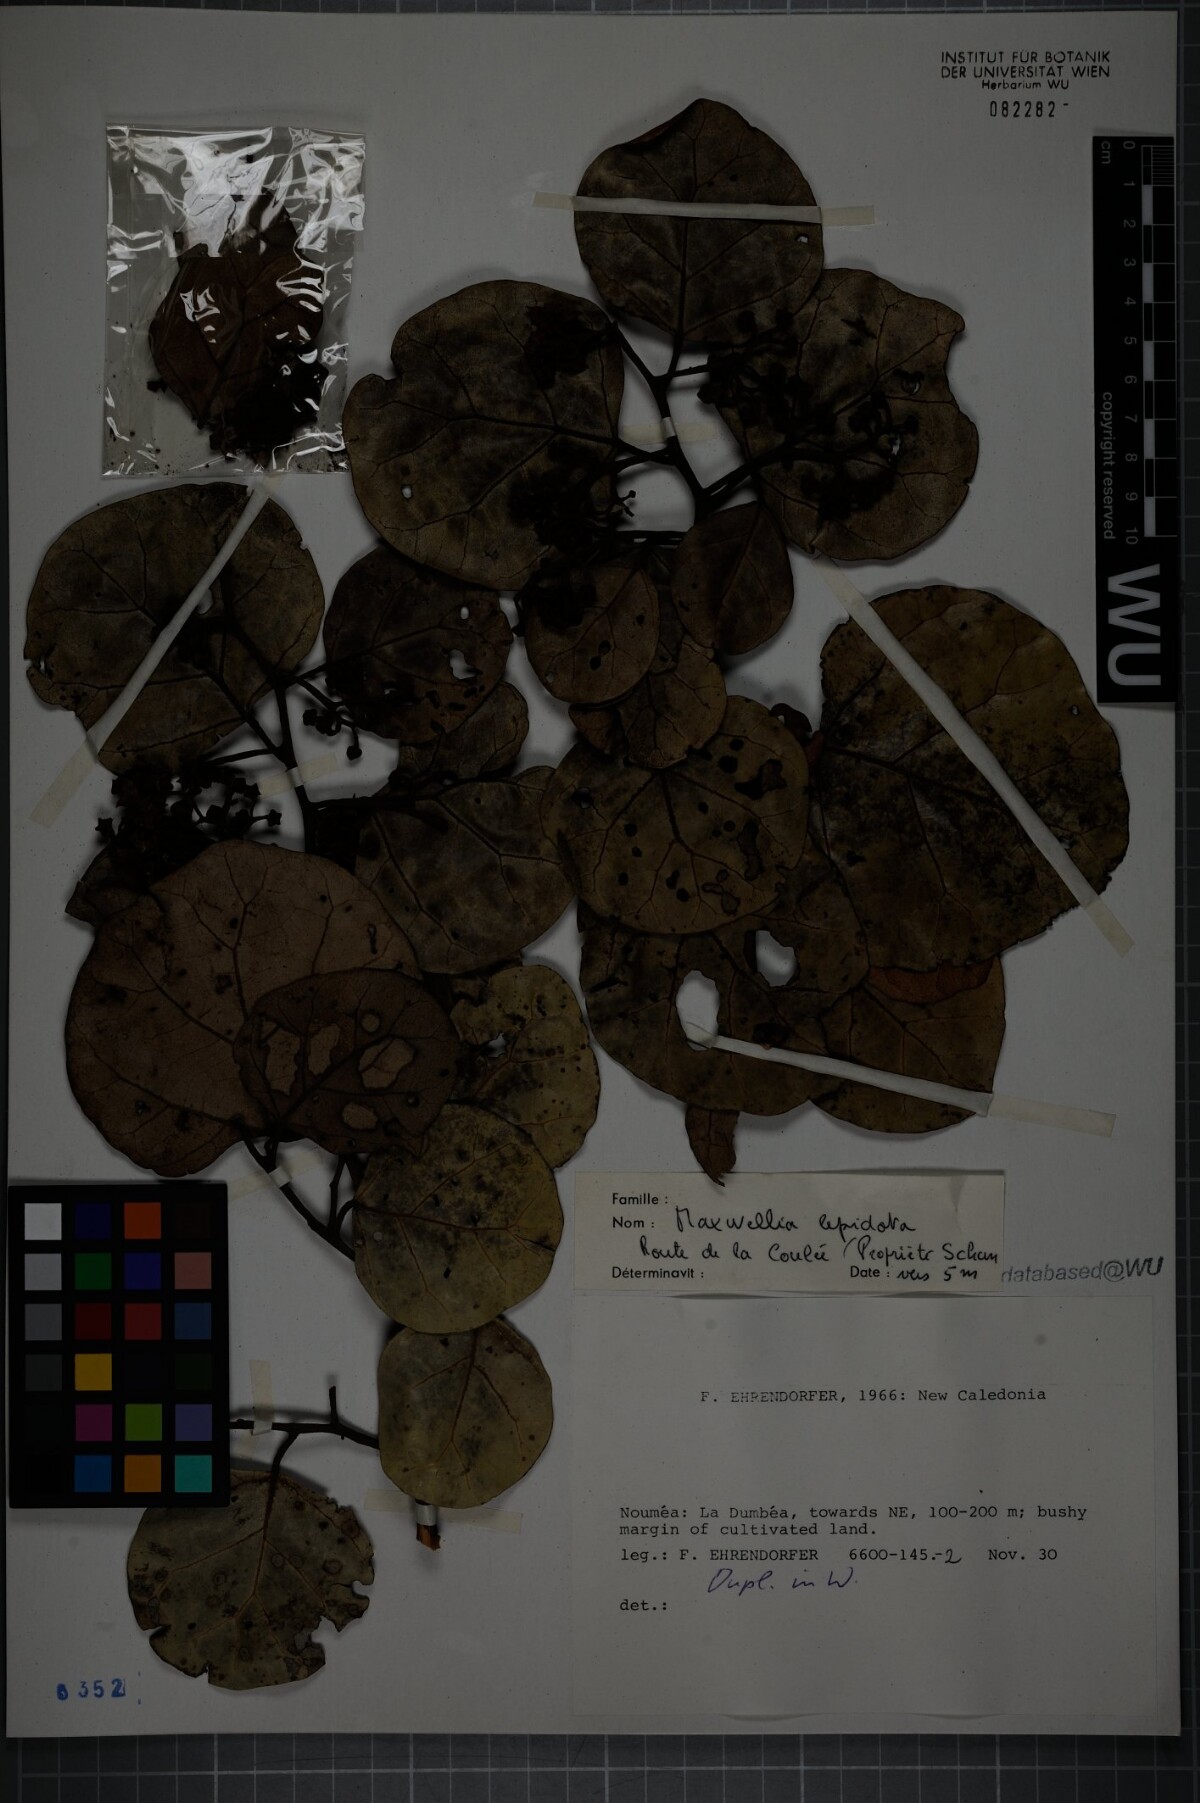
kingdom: Plantae
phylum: Tracheophyta
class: Magnoliopsida
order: Malvales
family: Malvaceae
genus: Maxwellia
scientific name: Maxwellia lepidota
